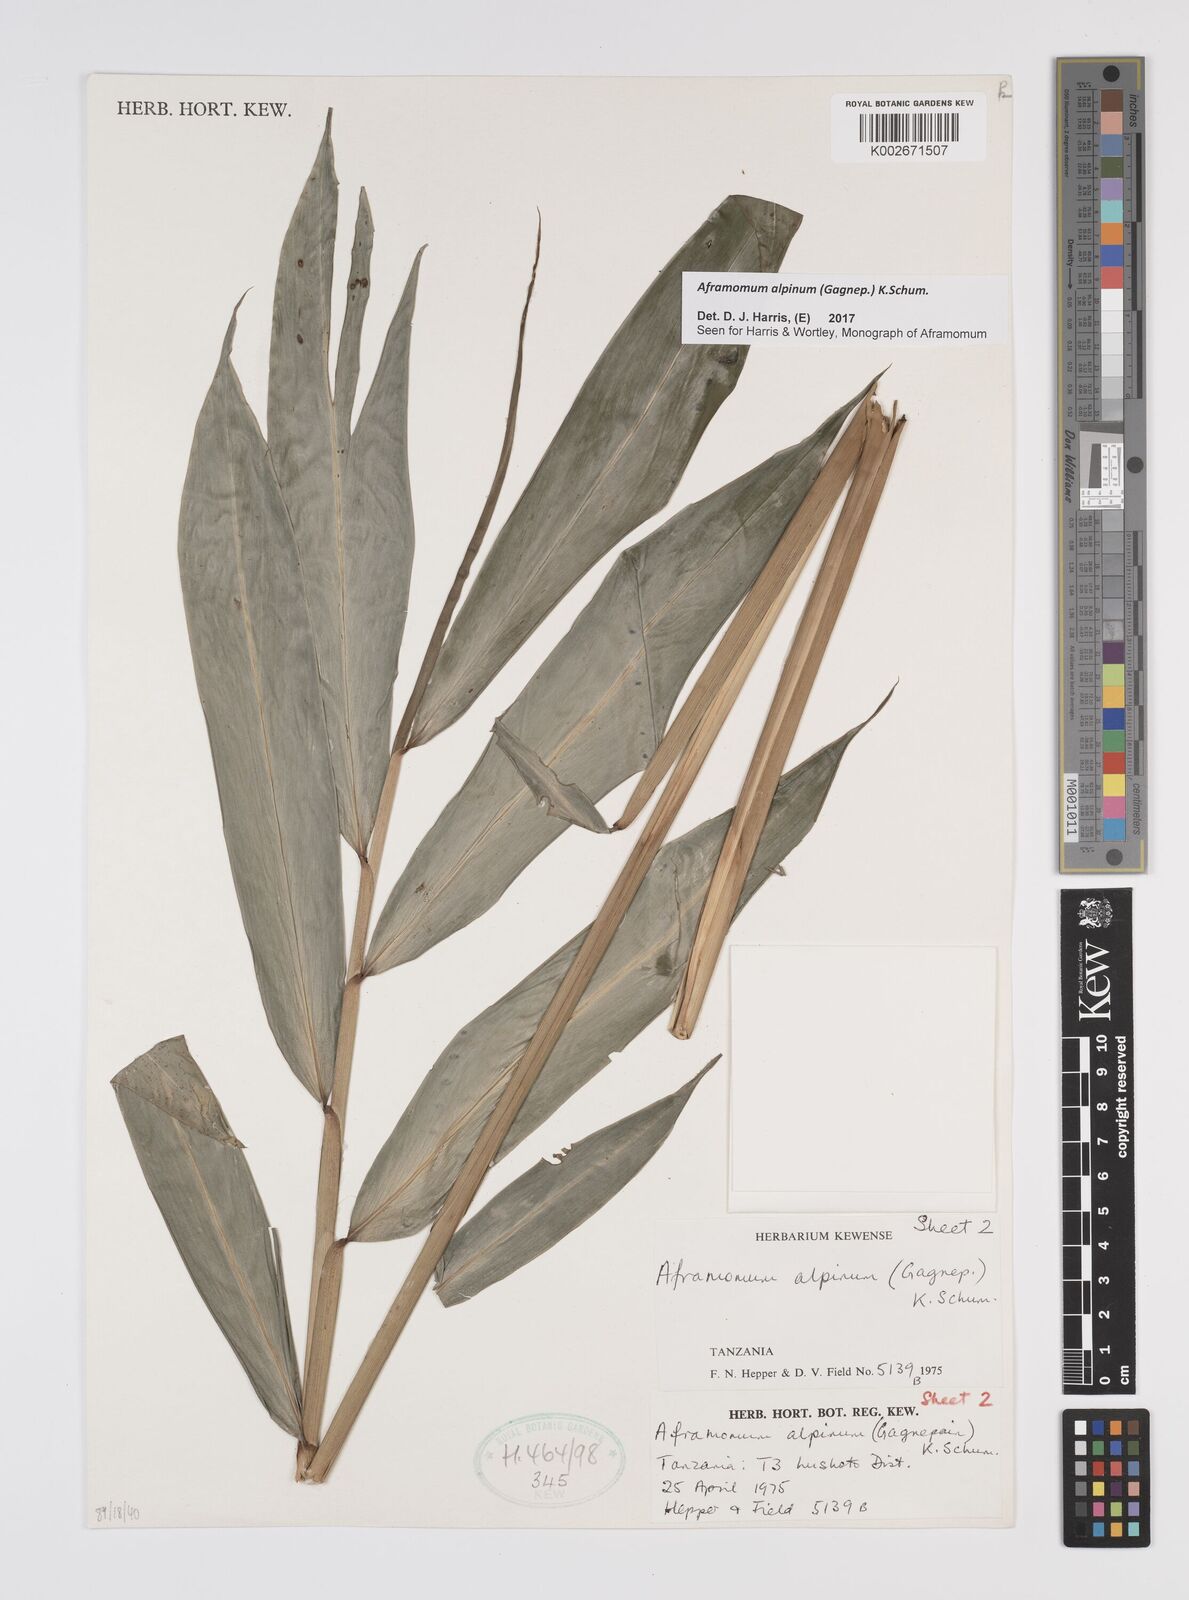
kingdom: Plantae
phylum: Tracheophyta
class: Liliopsida
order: Zingiberales
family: Zingiberaceae
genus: Aframomum
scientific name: Aframomum alpinum
